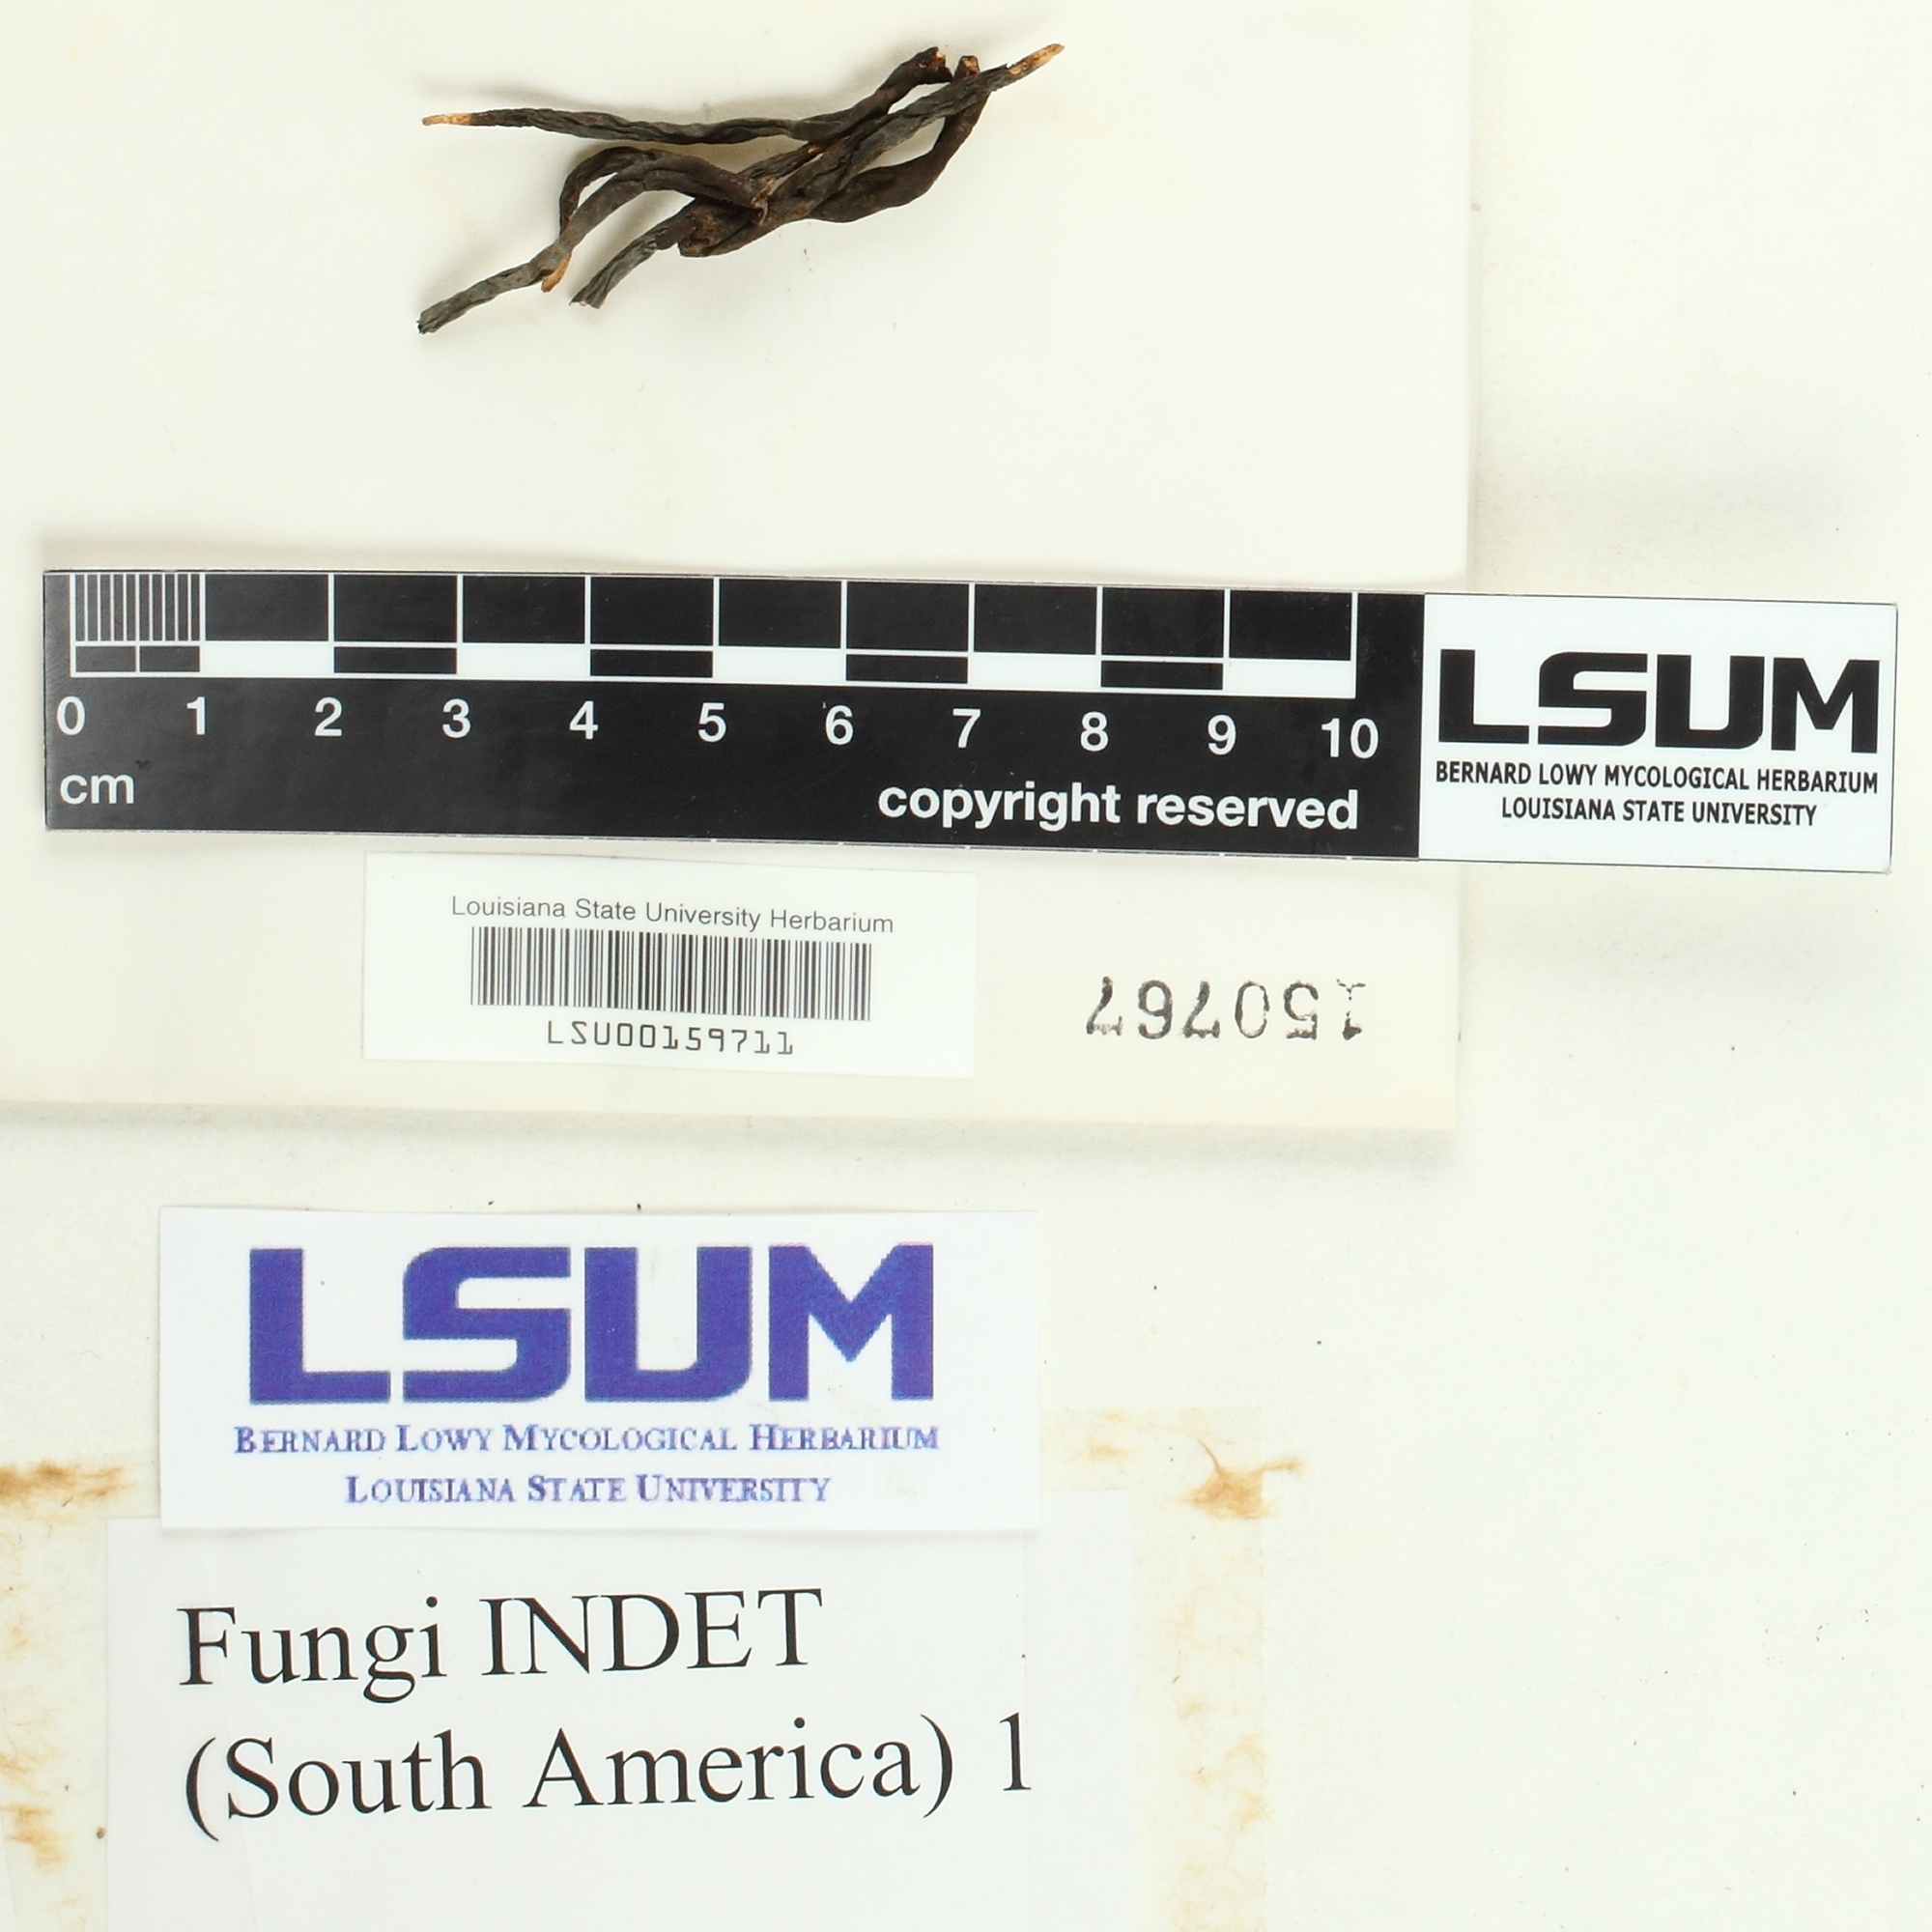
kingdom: Fungi
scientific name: Fungi
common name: Fungi
